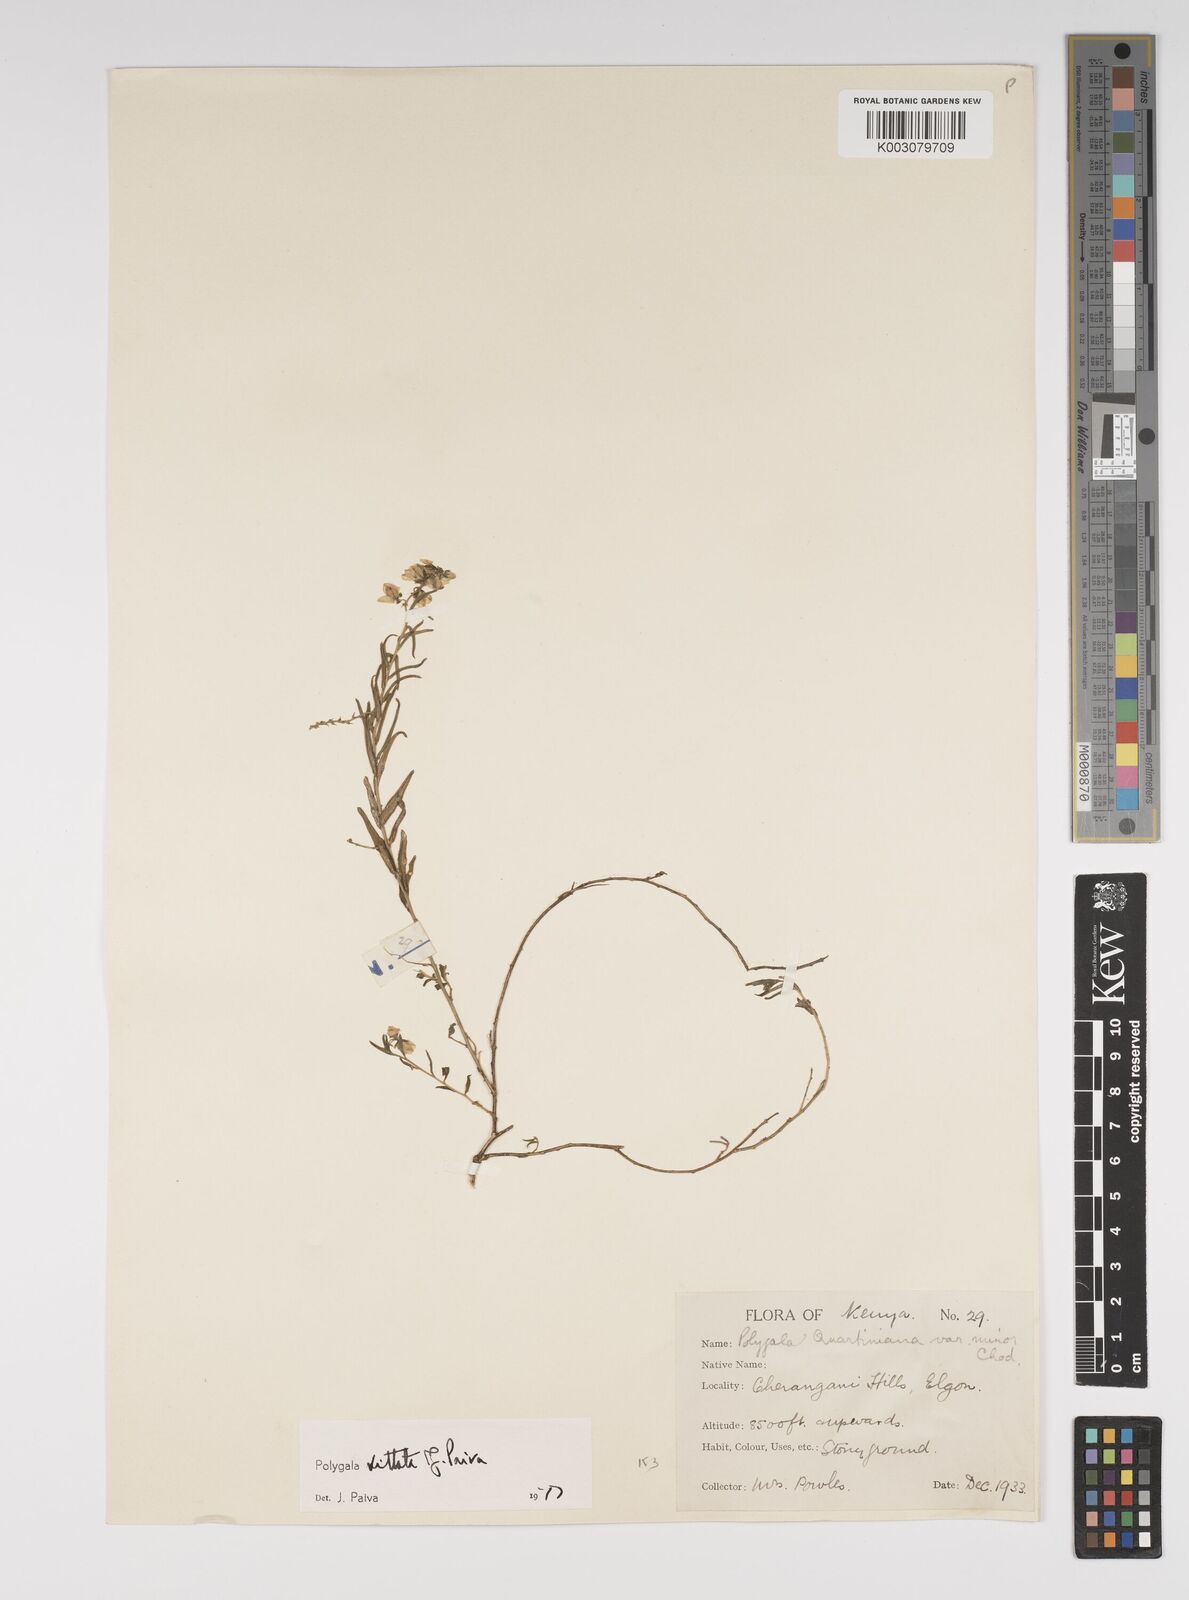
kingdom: Plantae
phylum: Tracheophyta
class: Magnoliopsida
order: Fabales
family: Polygalaceae
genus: Polygala
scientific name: Polygala vittata
